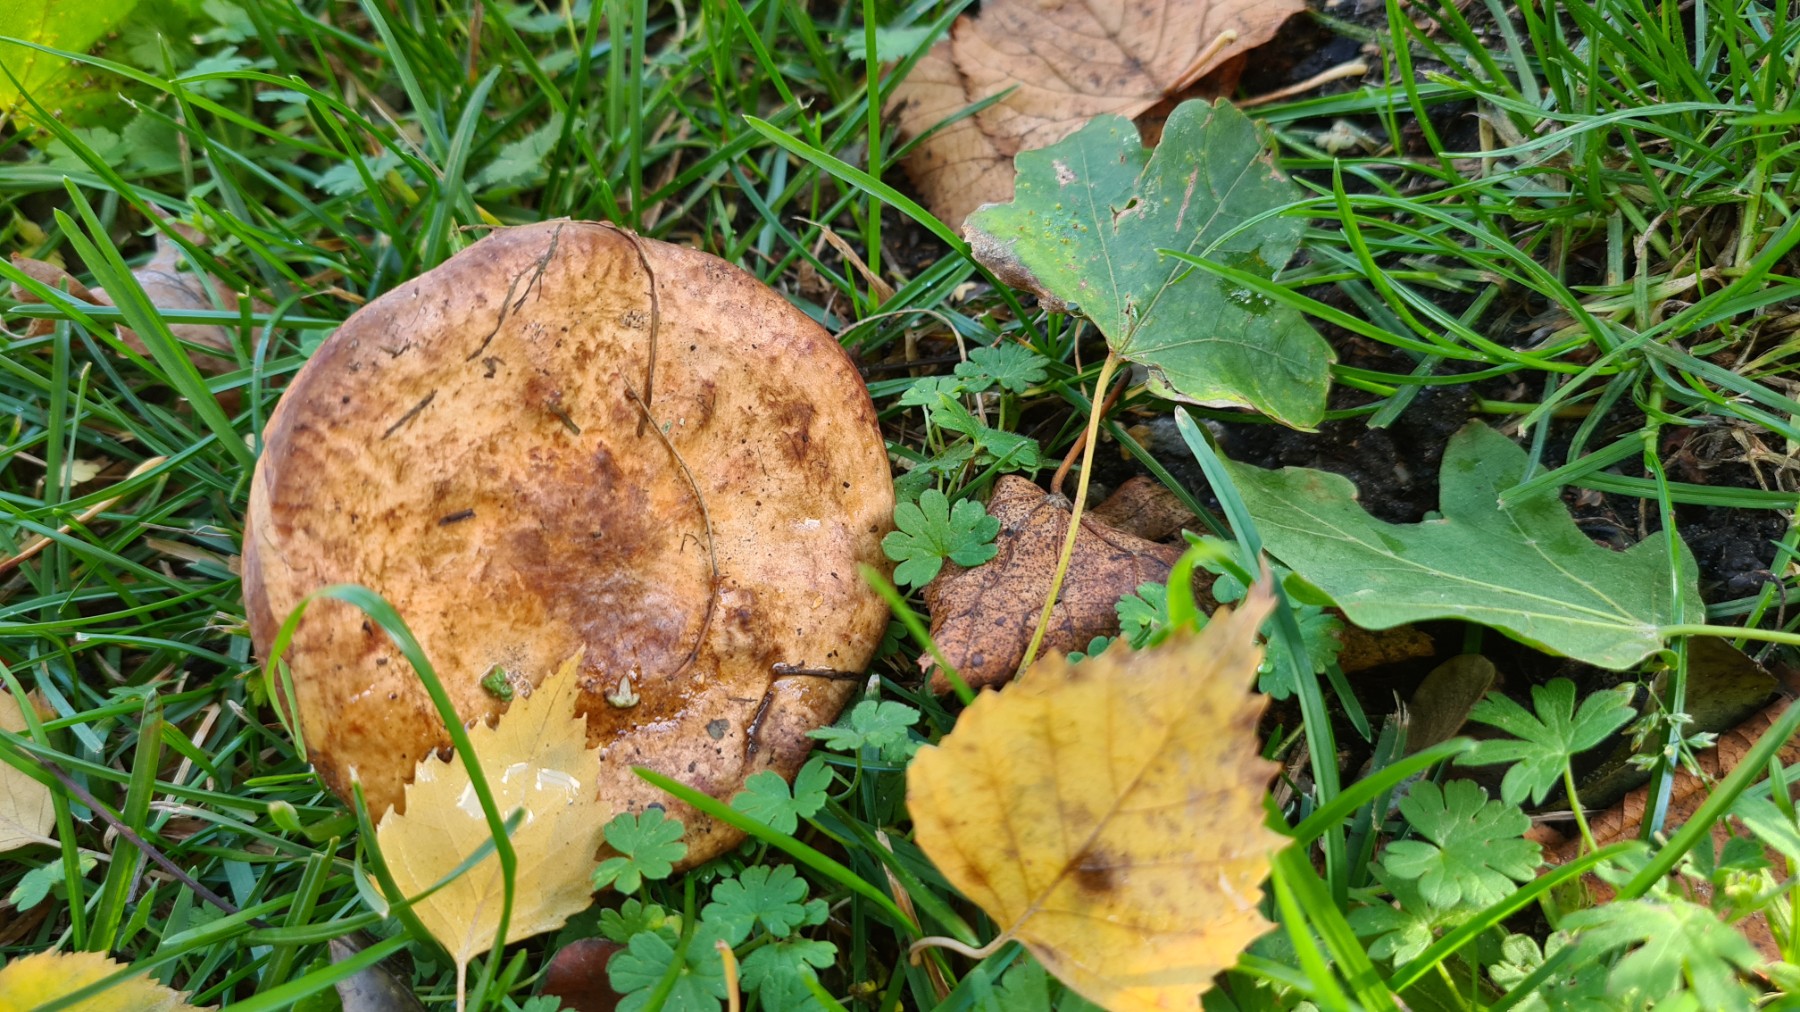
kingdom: Fungi
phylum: Basidiomycota
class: Agaricomycetes
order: Boletales
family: Paxillaceae
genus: Paxillus
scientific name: Paxillus involutus
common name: almindelig netbladhat
